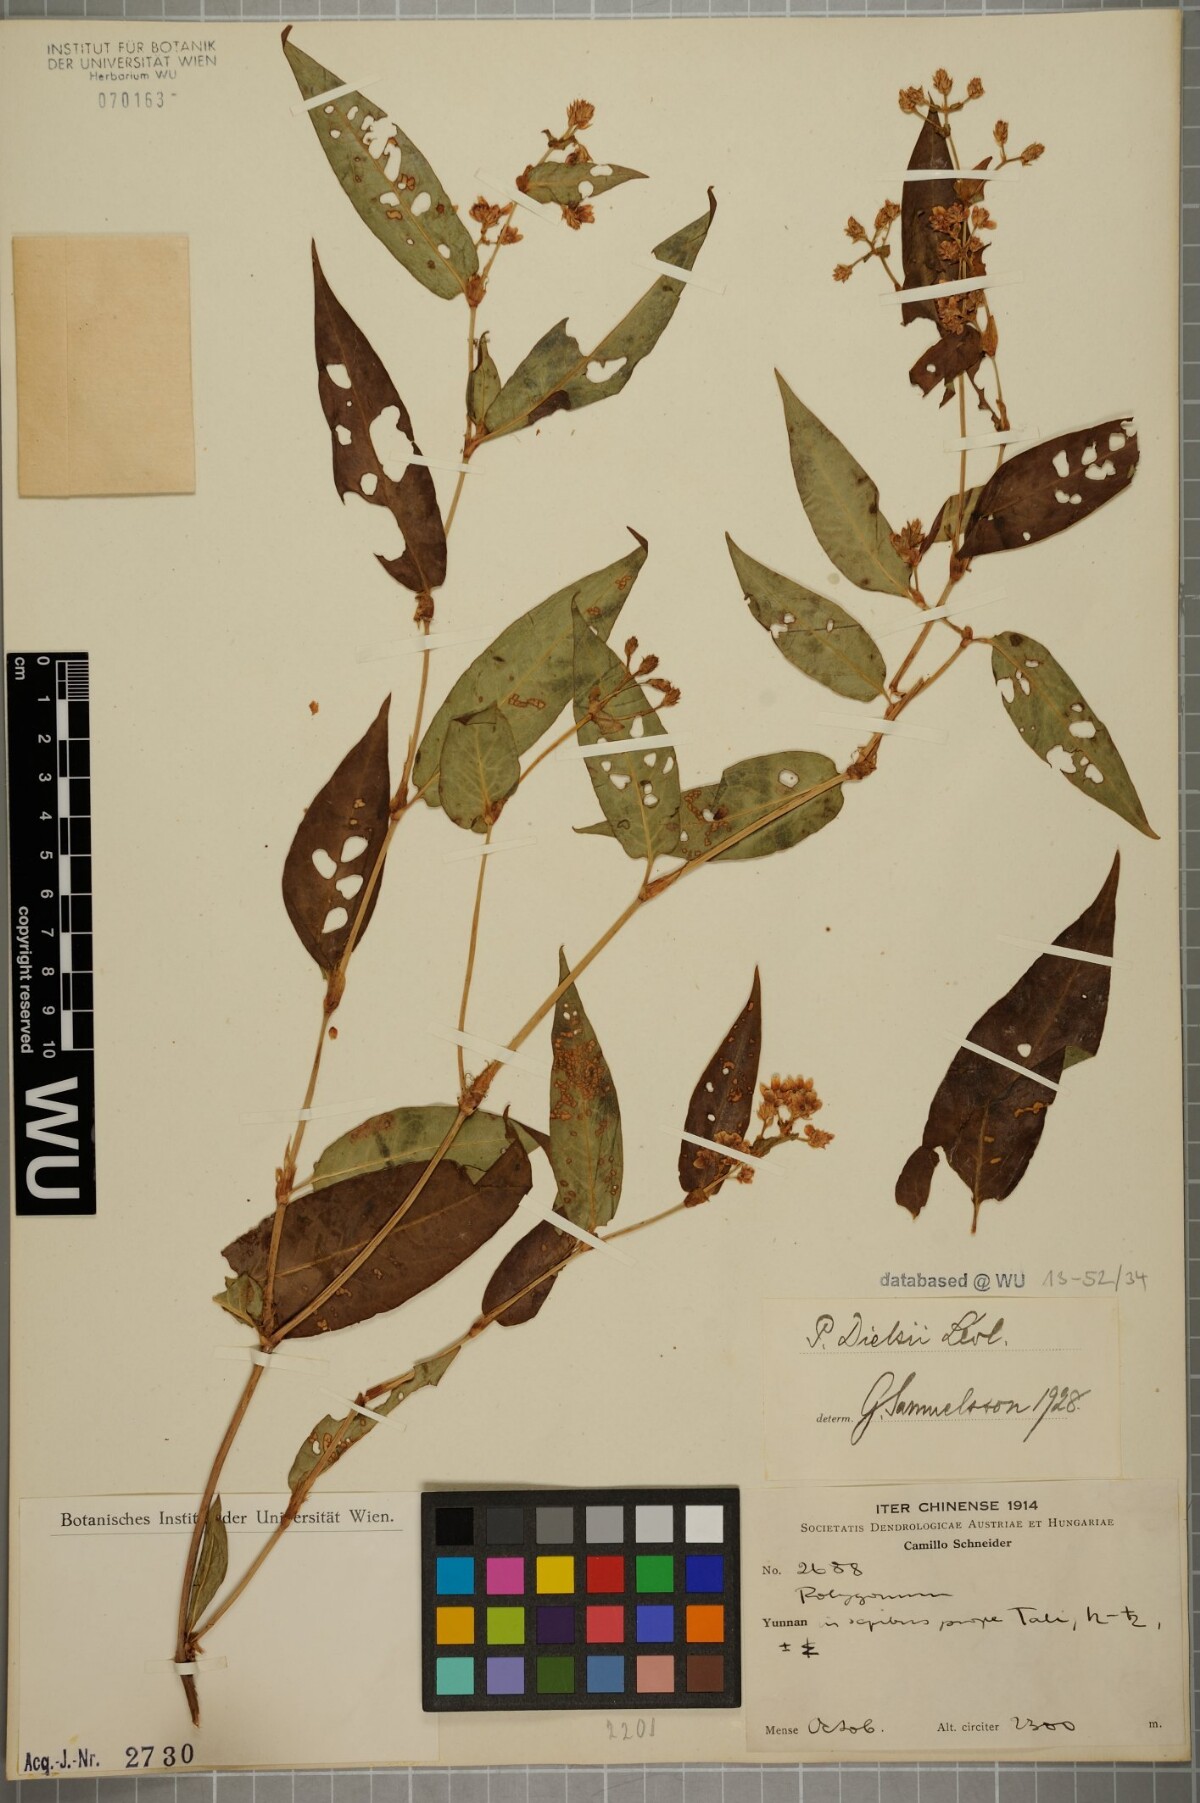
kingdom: Plantae
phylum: Tracheophyta
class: Magnoliopsida
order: Caryophyllales
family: Polygonaceae
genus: Persicaria
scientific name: Persicaria paradoxa
